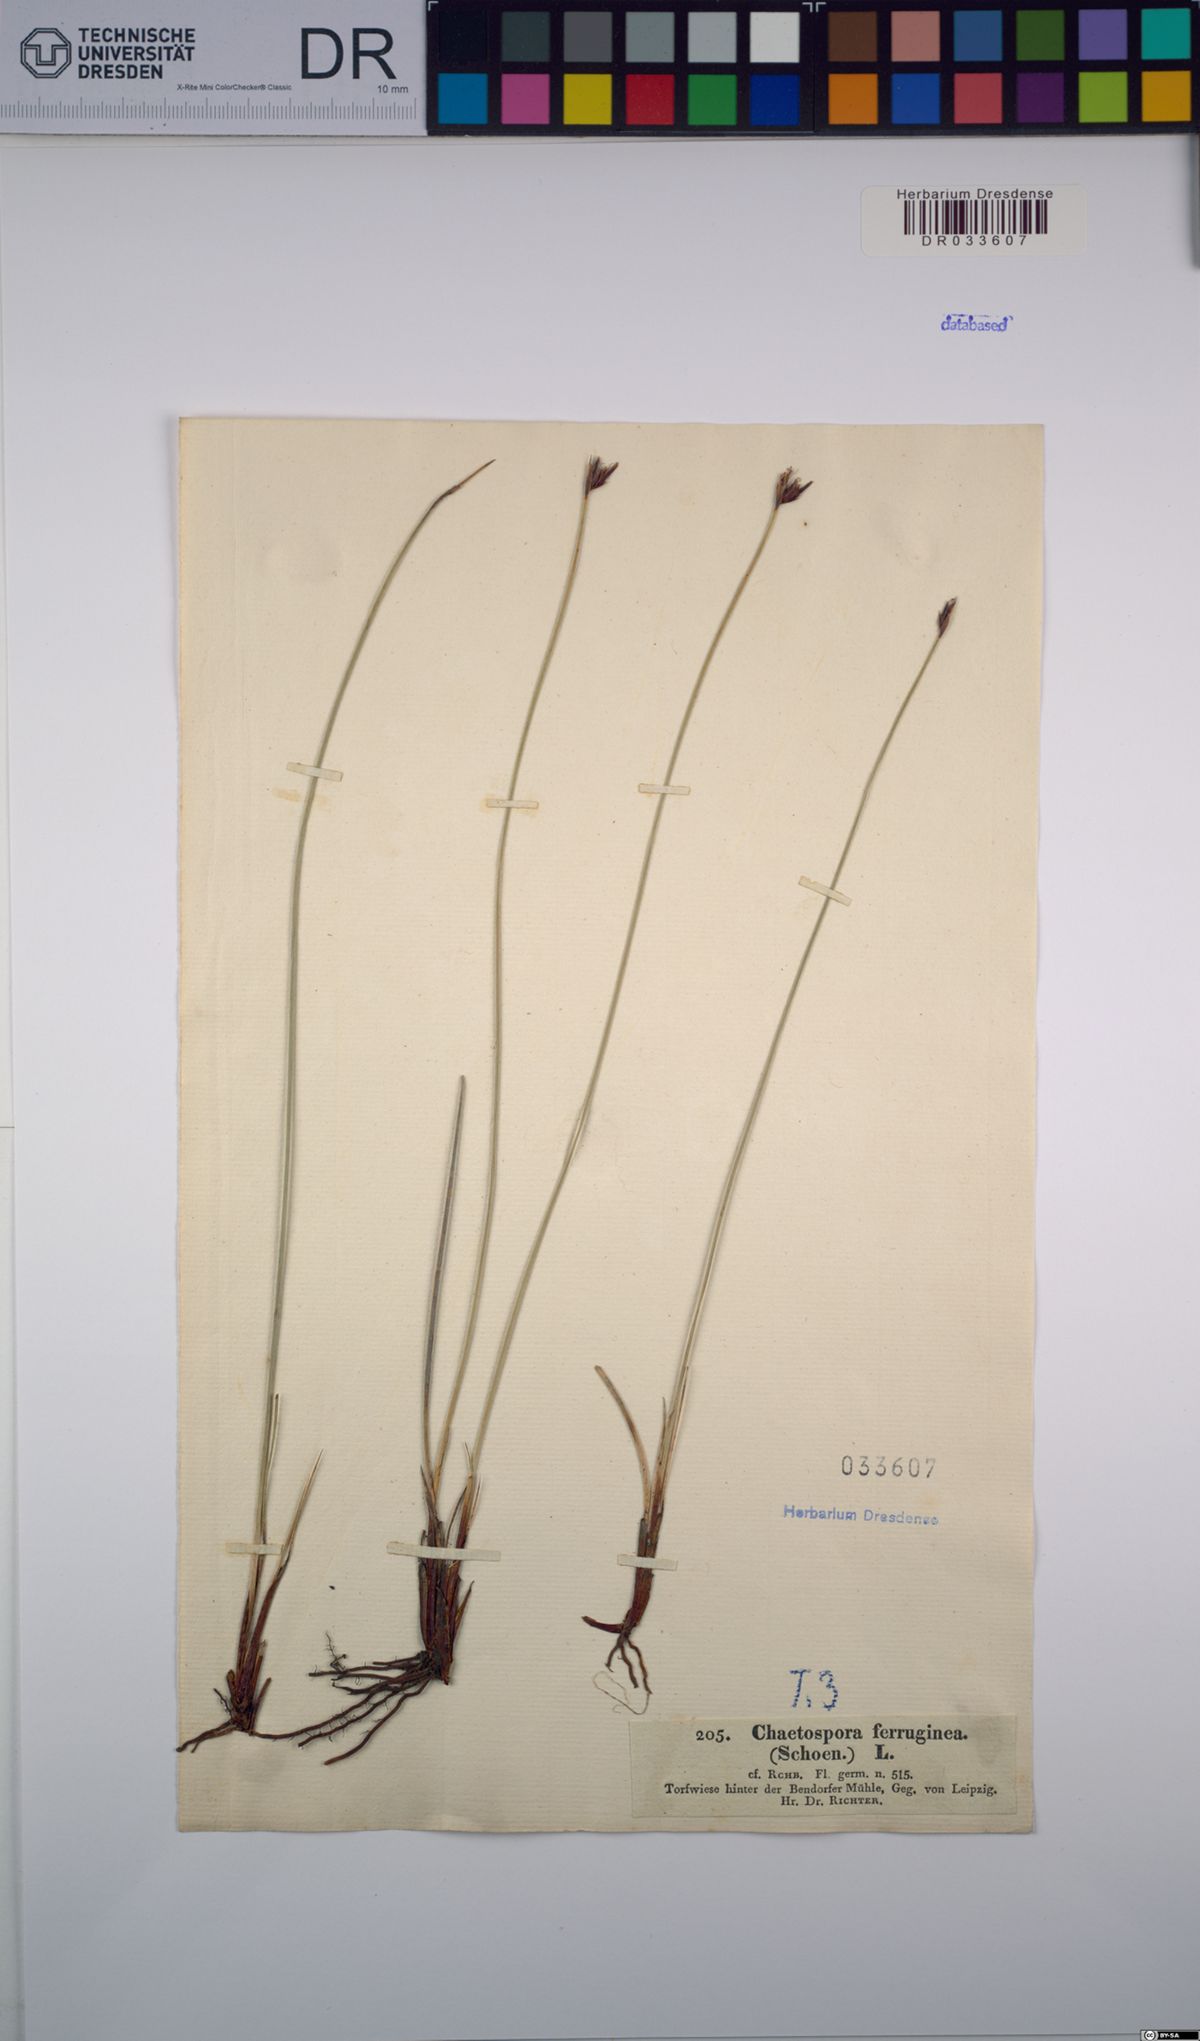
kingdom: Plantae
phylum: Tracheophyta
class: Liliopsida
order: Poales
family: Cyperaceae
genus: Schoenus
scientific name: Schoenus ferrugineus
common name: Brown bog-rush
